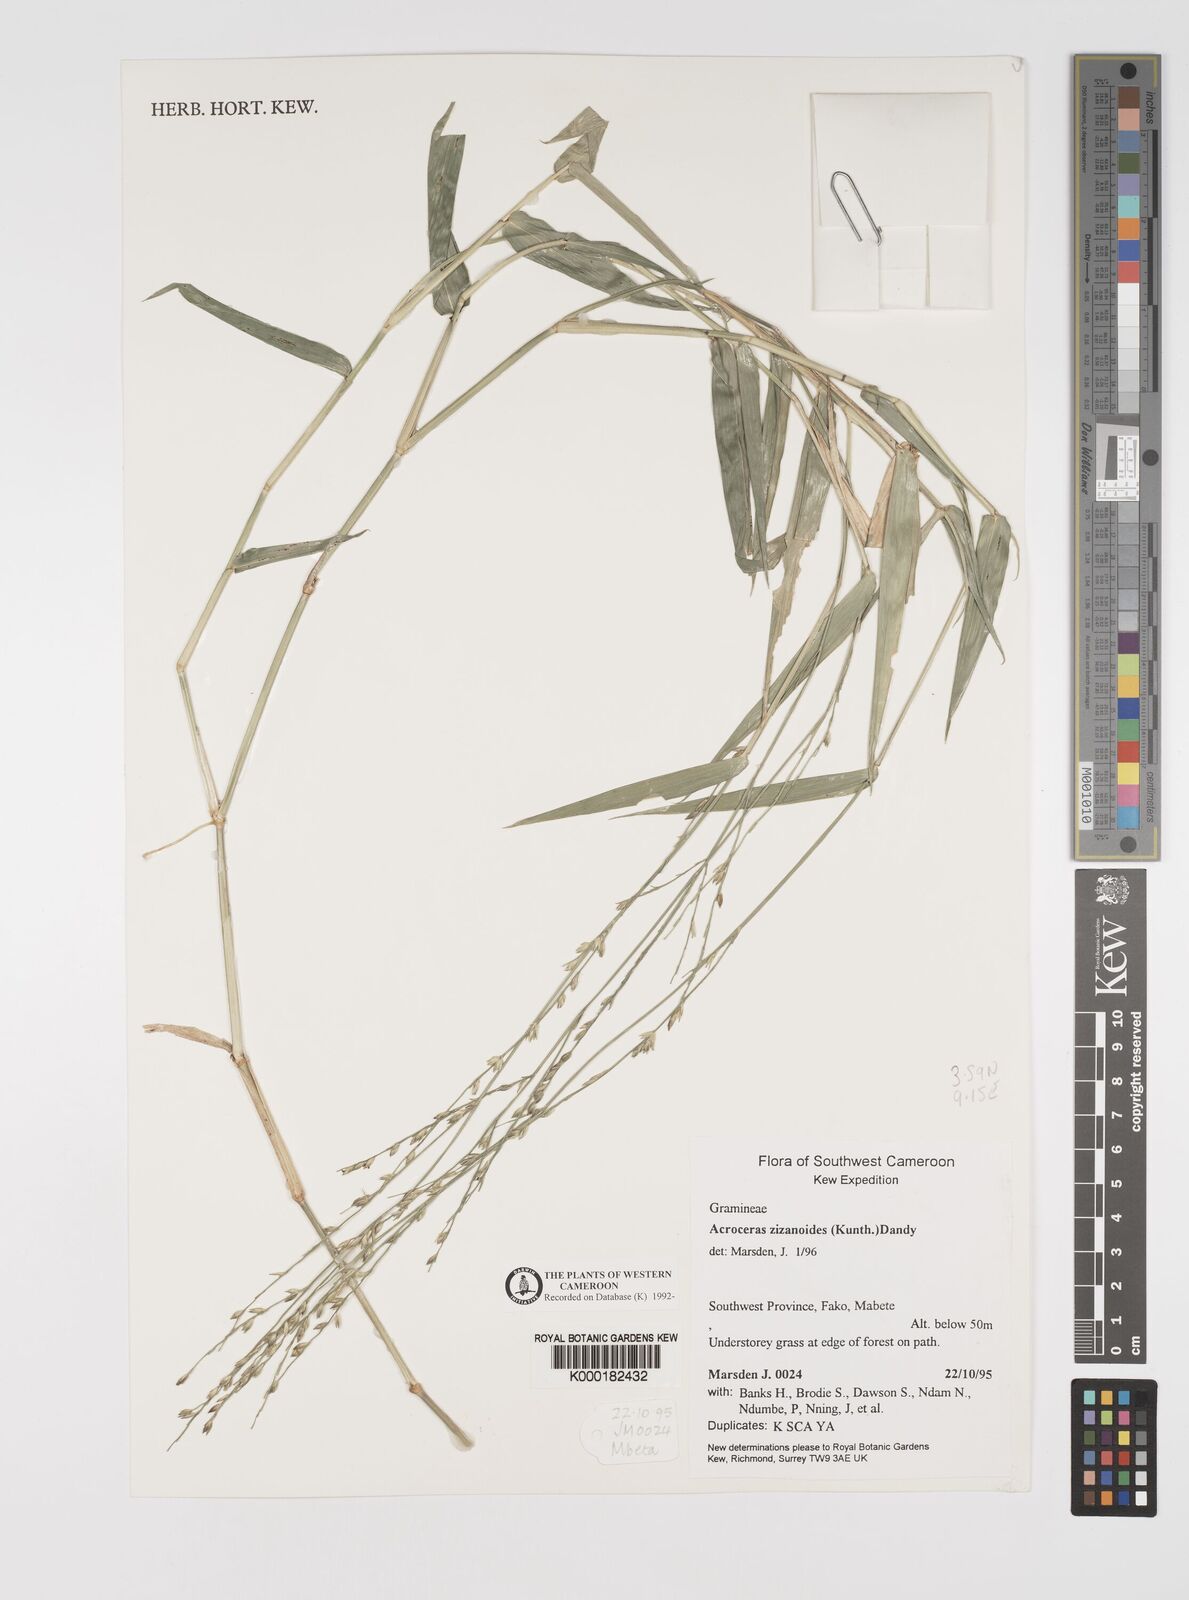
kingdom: Plantae
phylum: Tracheophyta
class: Liliopsida
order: Poales
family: Poaceae
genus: Acroceras
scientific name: Acroceras zizanioides
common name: Oat grass
